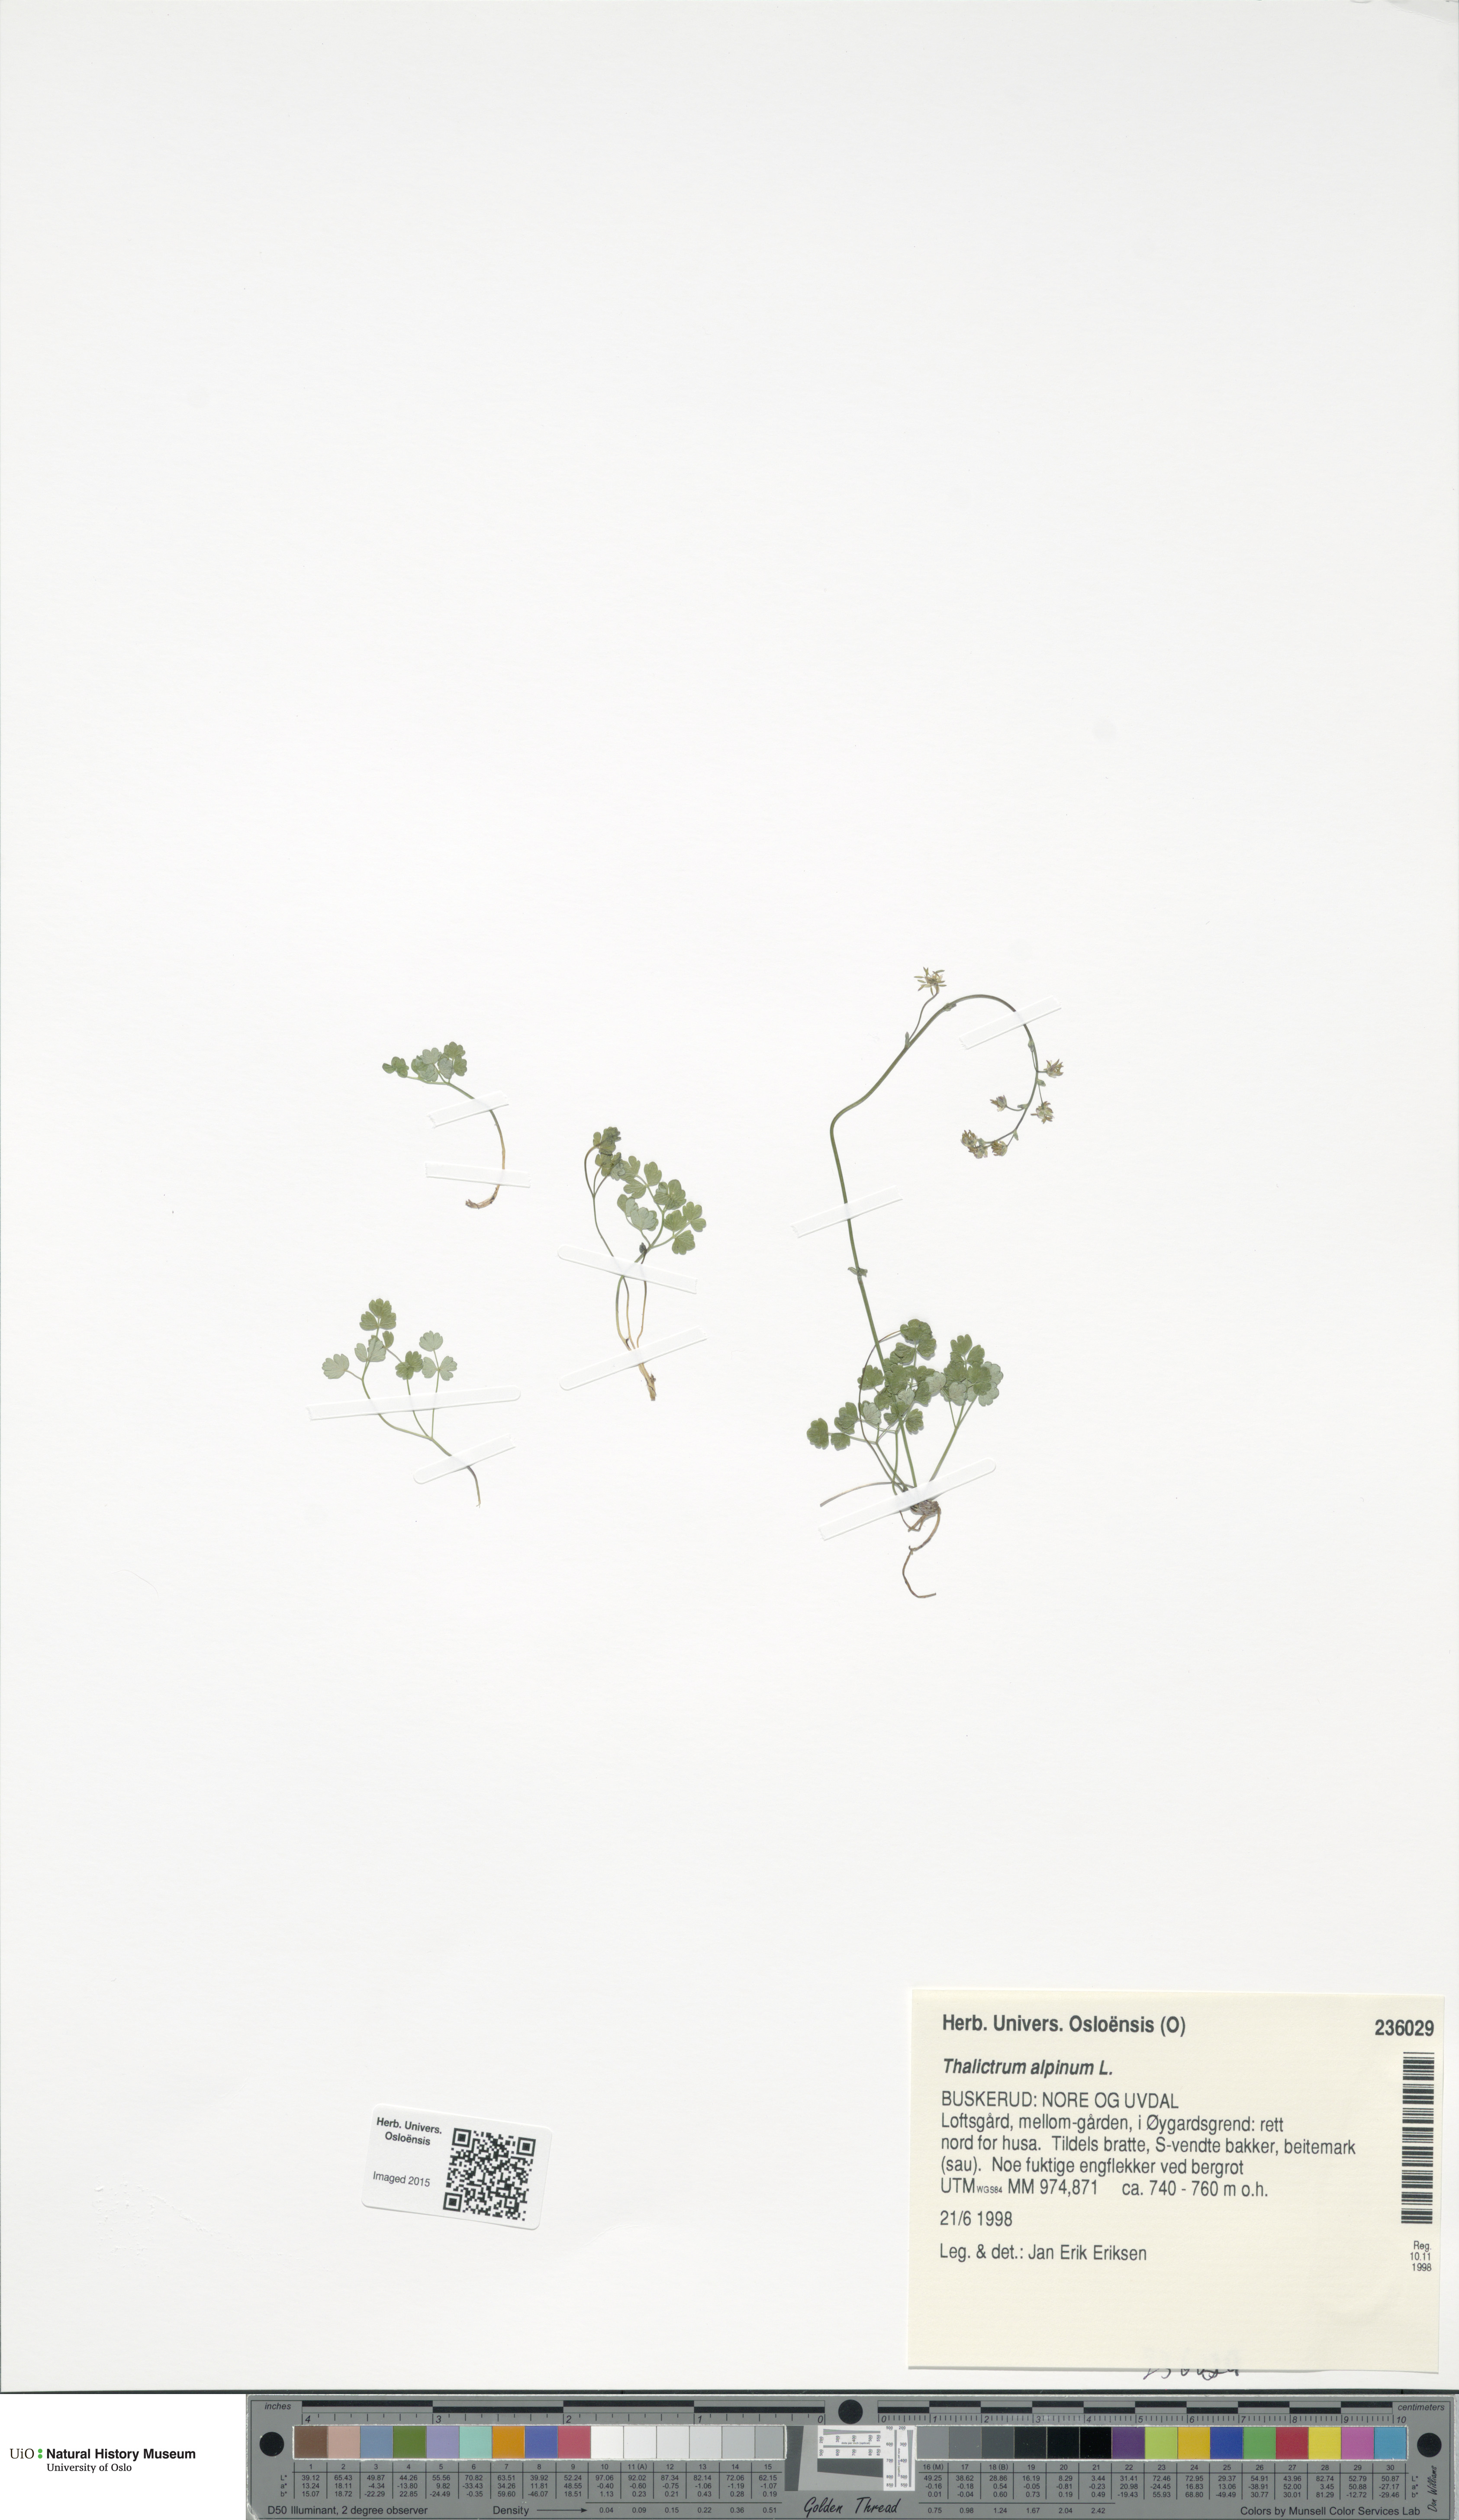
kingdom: Plantae
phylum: Tracheophyta
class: Magnoliopsida
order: Ranunculales
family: Ranunculaceae
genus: Thalictrum
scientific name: Thalictrum alpinum
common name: Alpine meadow-rue
